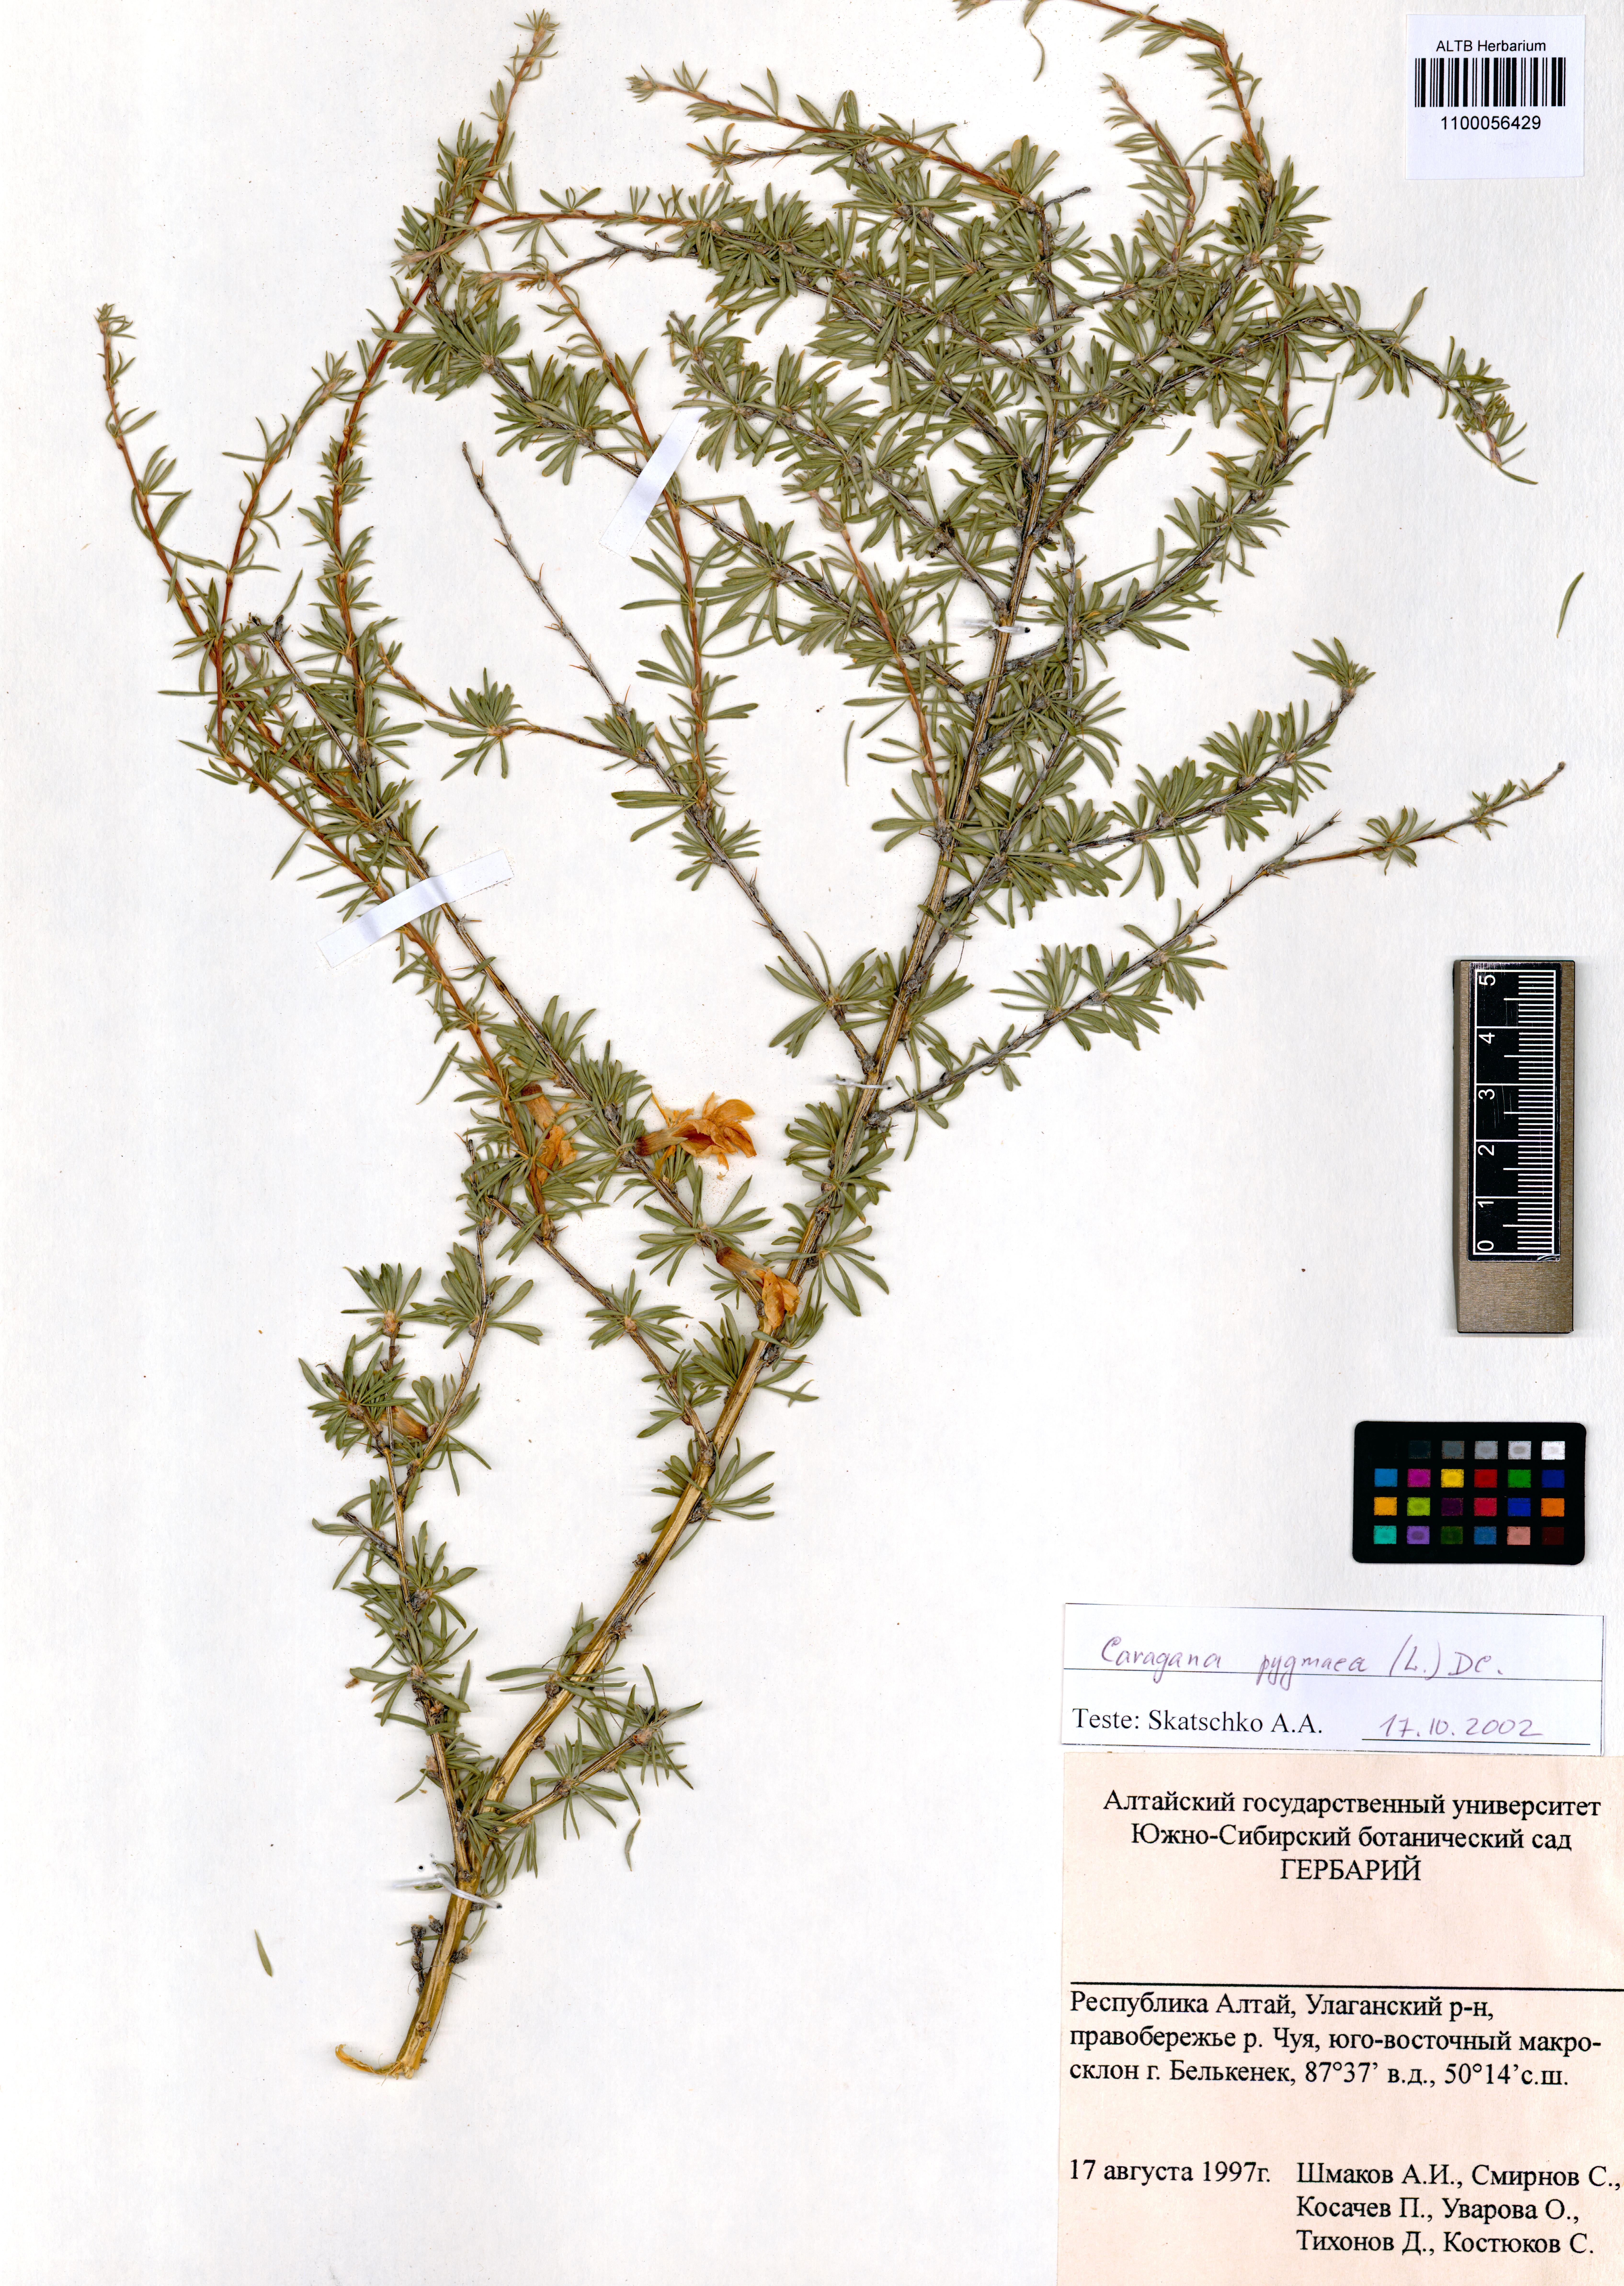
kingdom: Plantae
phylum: Tracheophyta
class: Magnoliopsida
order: Fabales
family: Fabaceae
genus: Caragana
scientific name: Caragana pygmaea
